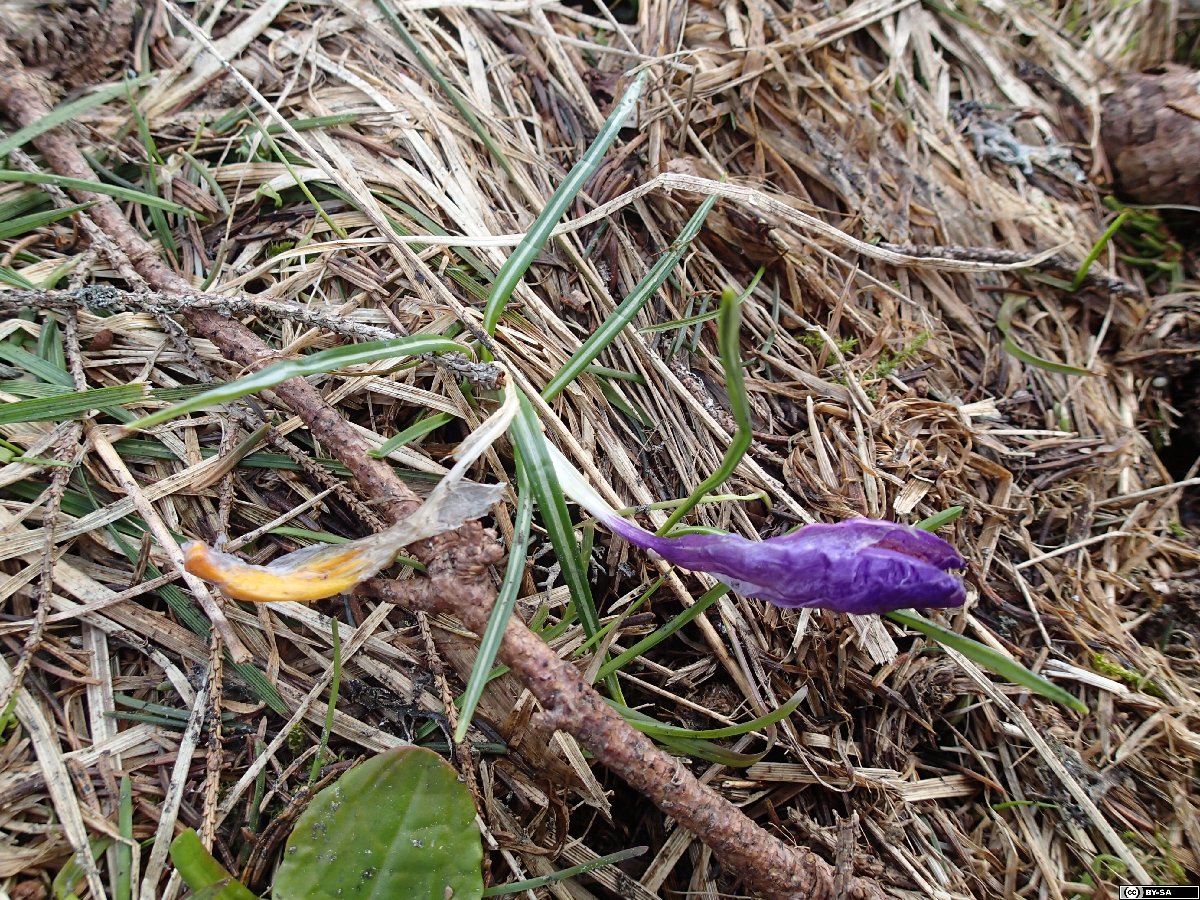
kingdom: Plantae
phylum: Tracheophyta
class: Liliopsida
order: Asparagales
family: Iridaceae
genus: Crocus
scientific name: Crocus neapolitanus
